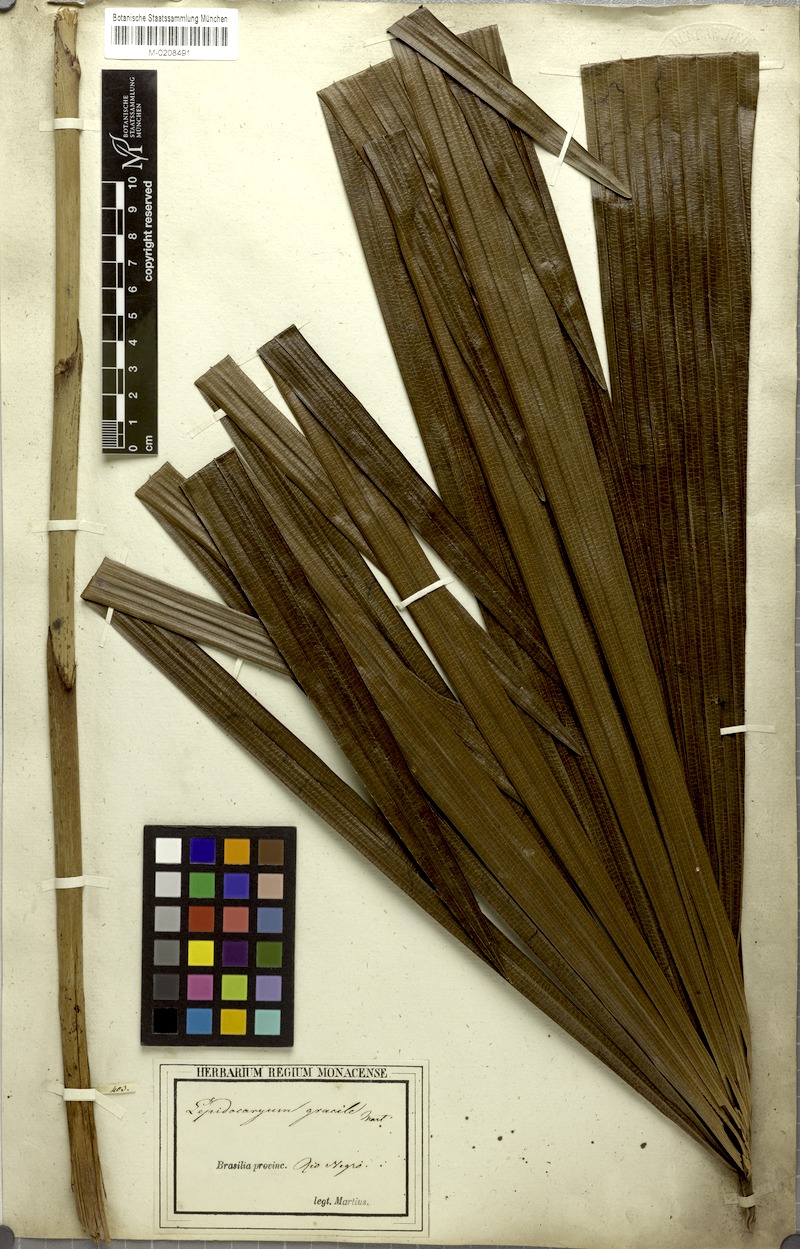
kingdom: Plantae
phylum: Tracheophyta
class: Liliopsida
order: Arecales
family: Arecaceae
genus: Lepidocaryum
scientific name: Lepidocaryum tenue
